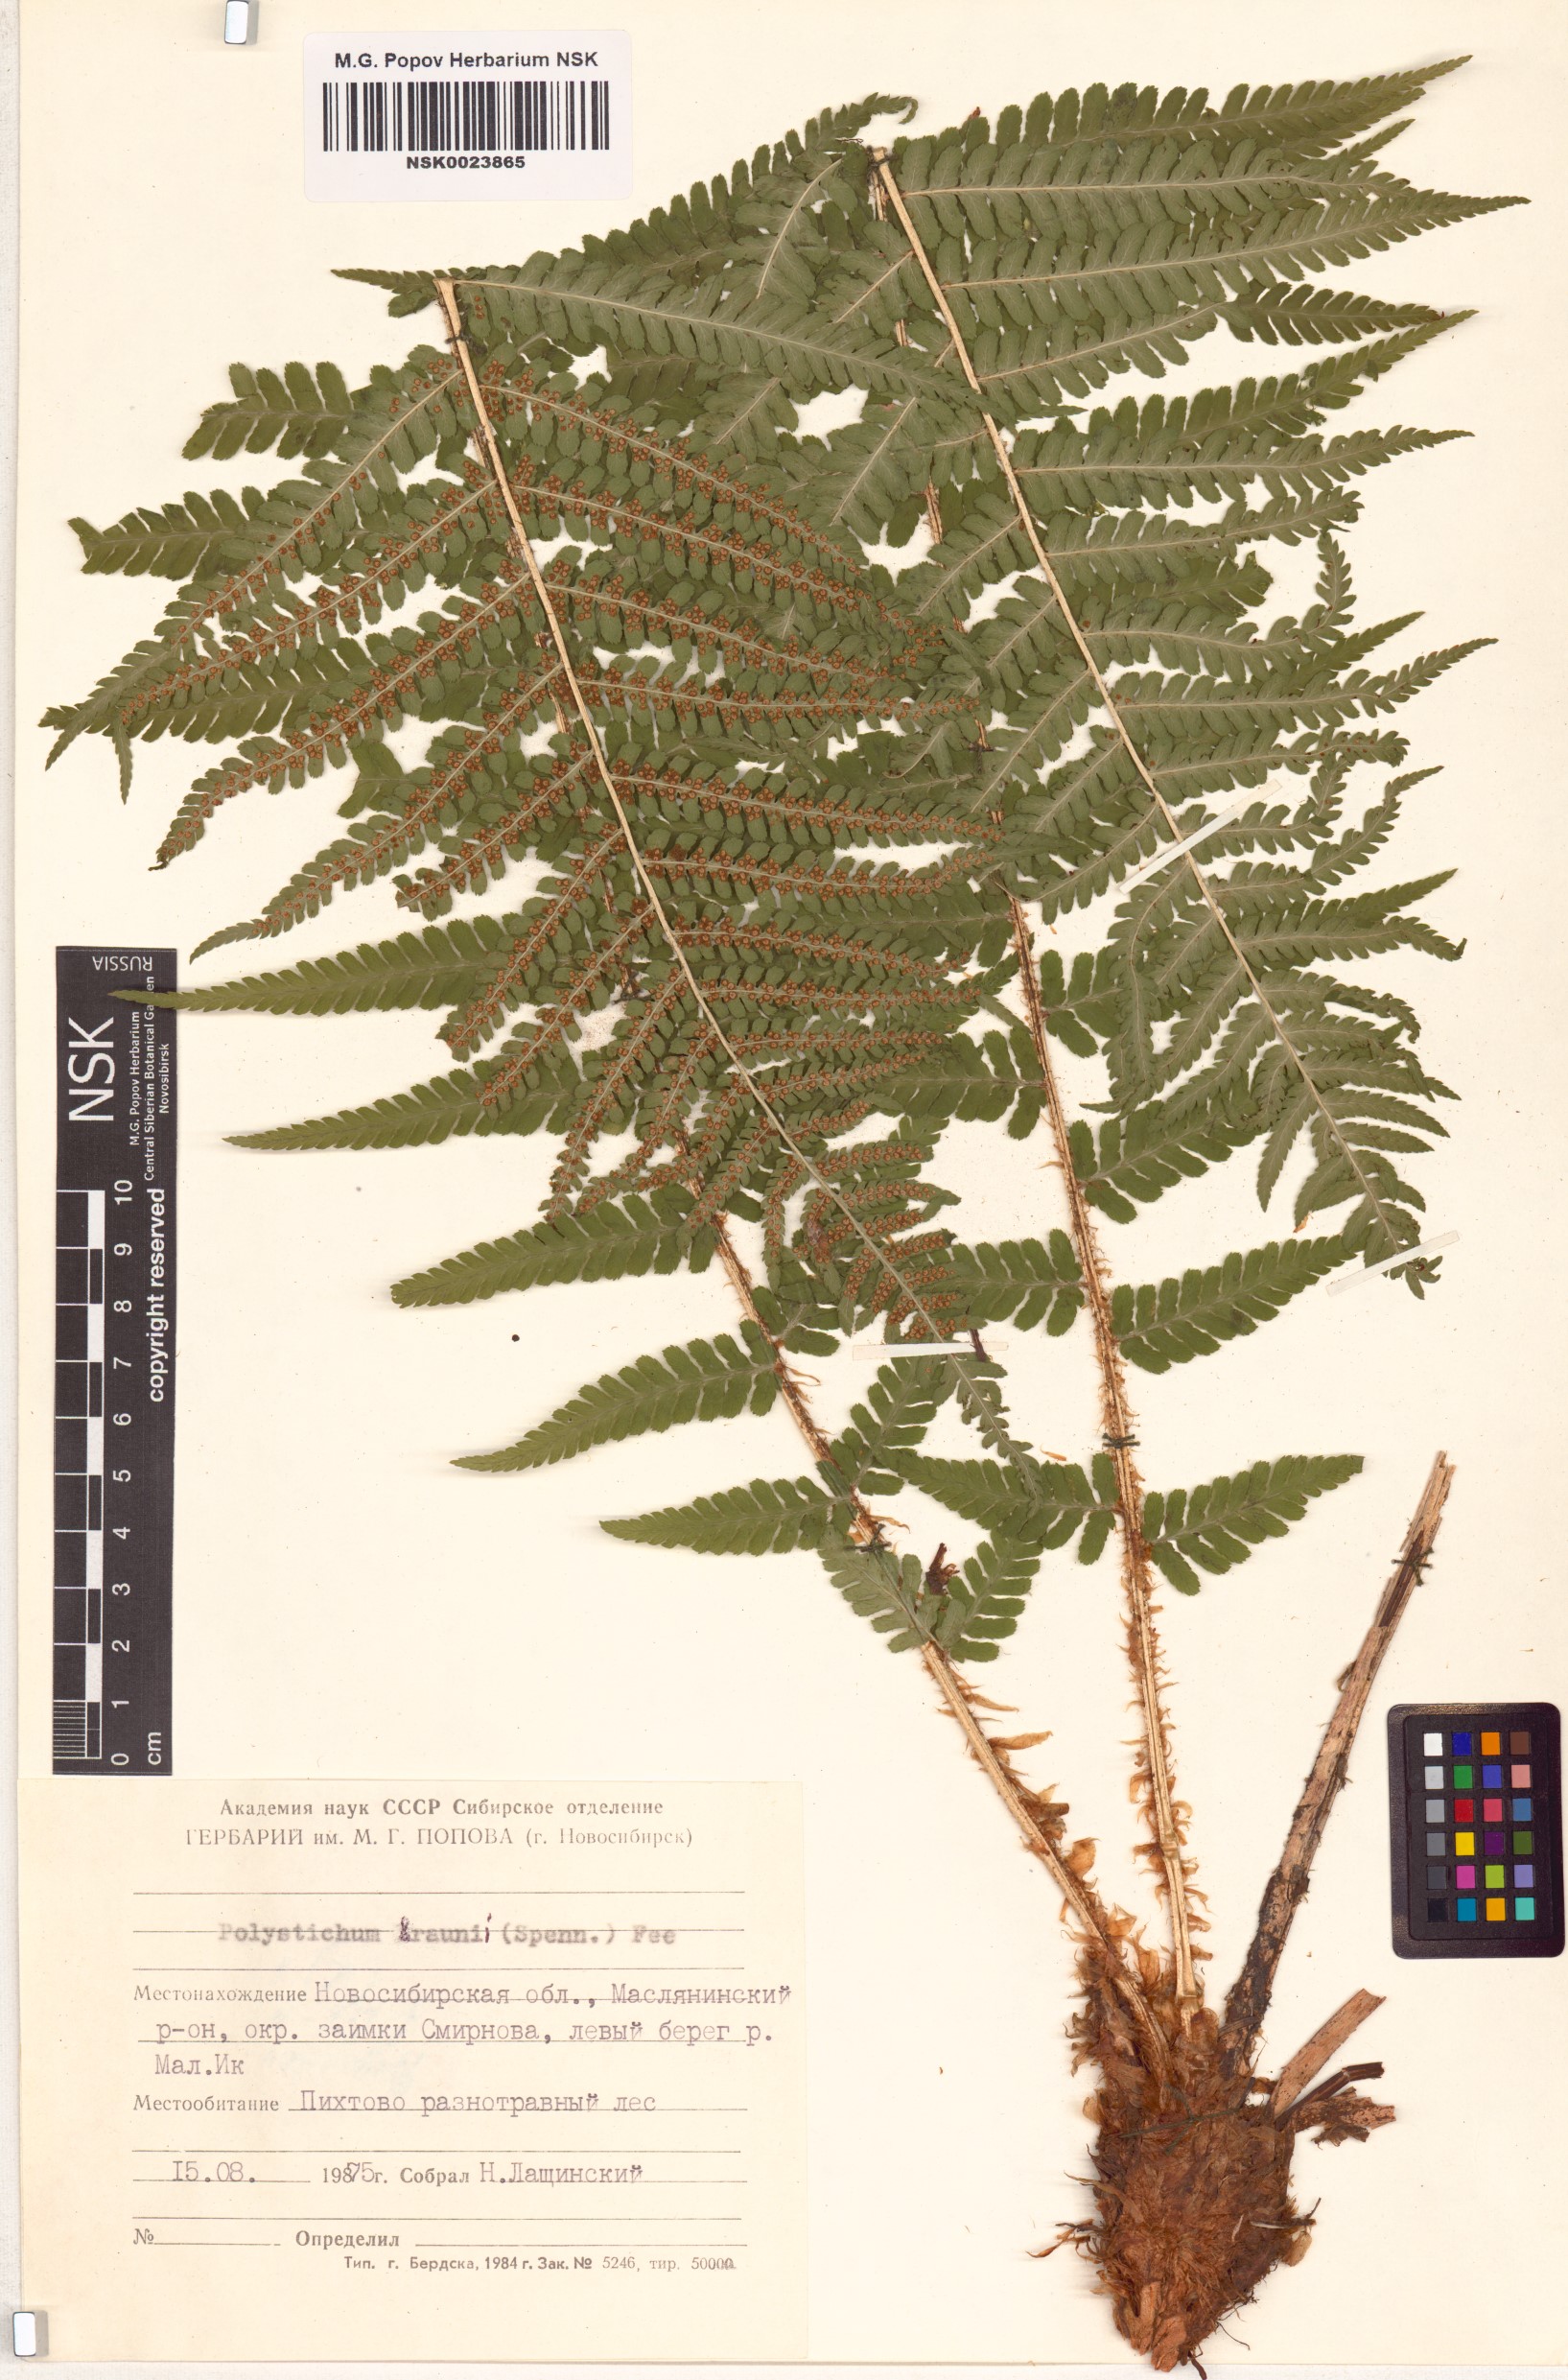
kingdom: Plantae
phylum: Tracheophyta
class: Polypodiopsida
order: Polypodiales
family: Dryopteridaceae
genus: Polystichum
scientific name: Polystichum braunii
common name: Braun's holly fern
